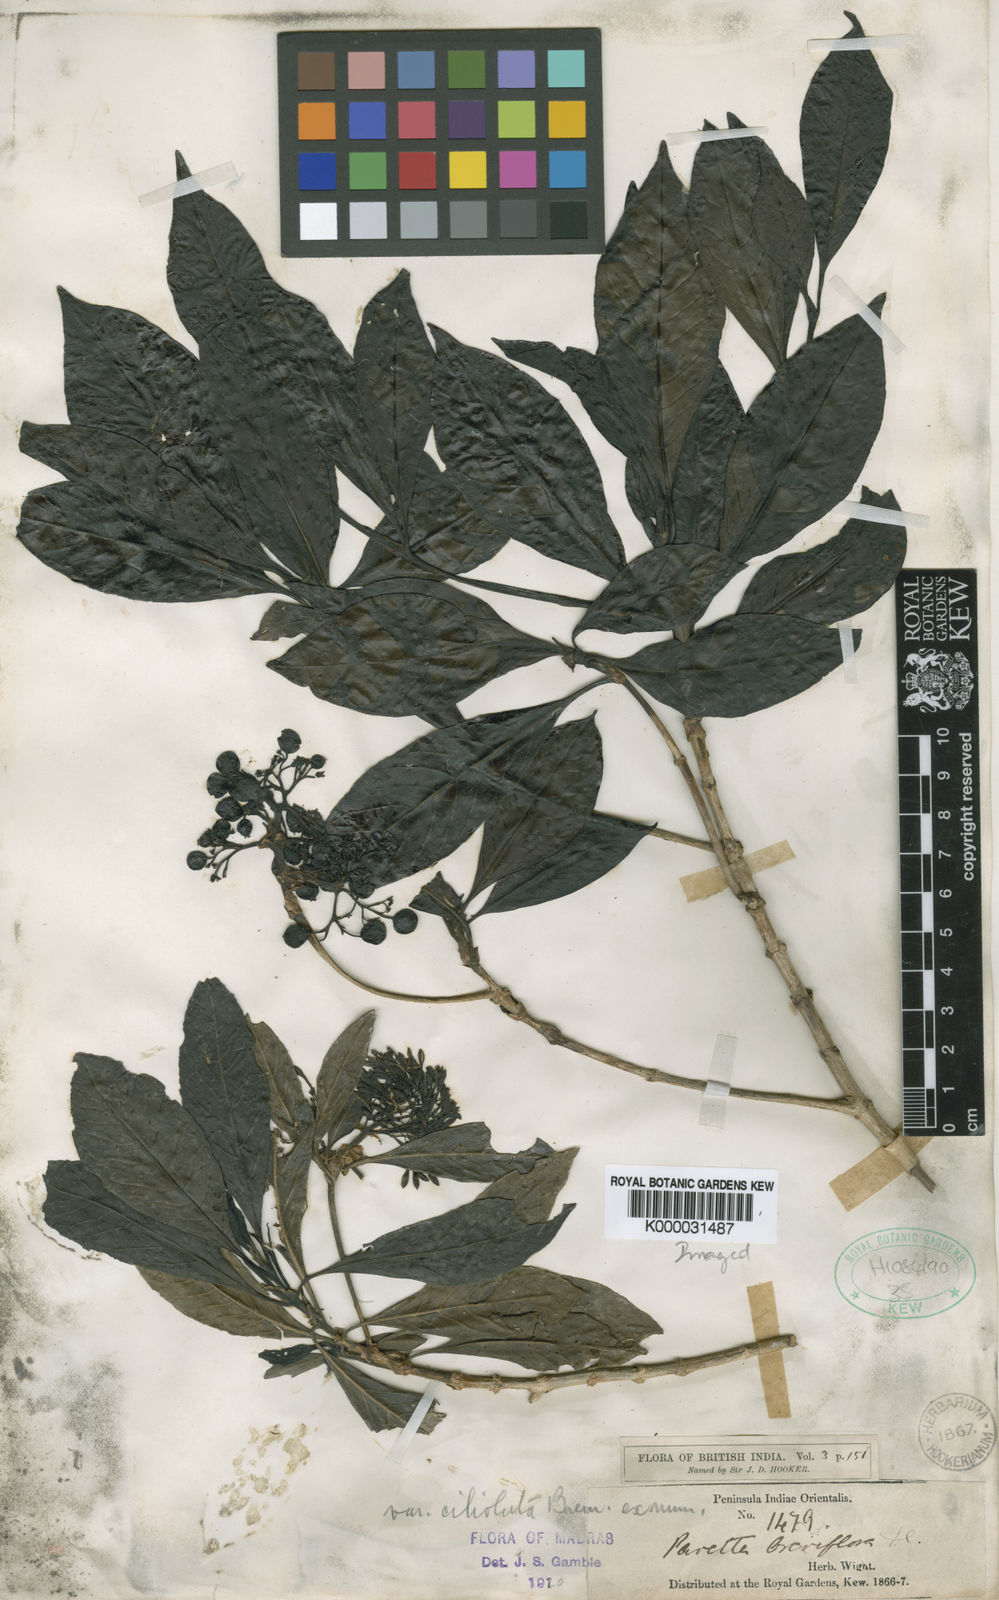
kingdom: Plantae
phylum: Tracheophyta
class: Magnoliopsida
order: Gentianales
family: Rubiaceae
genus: Pavetta
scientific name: Pavetta breviflora
